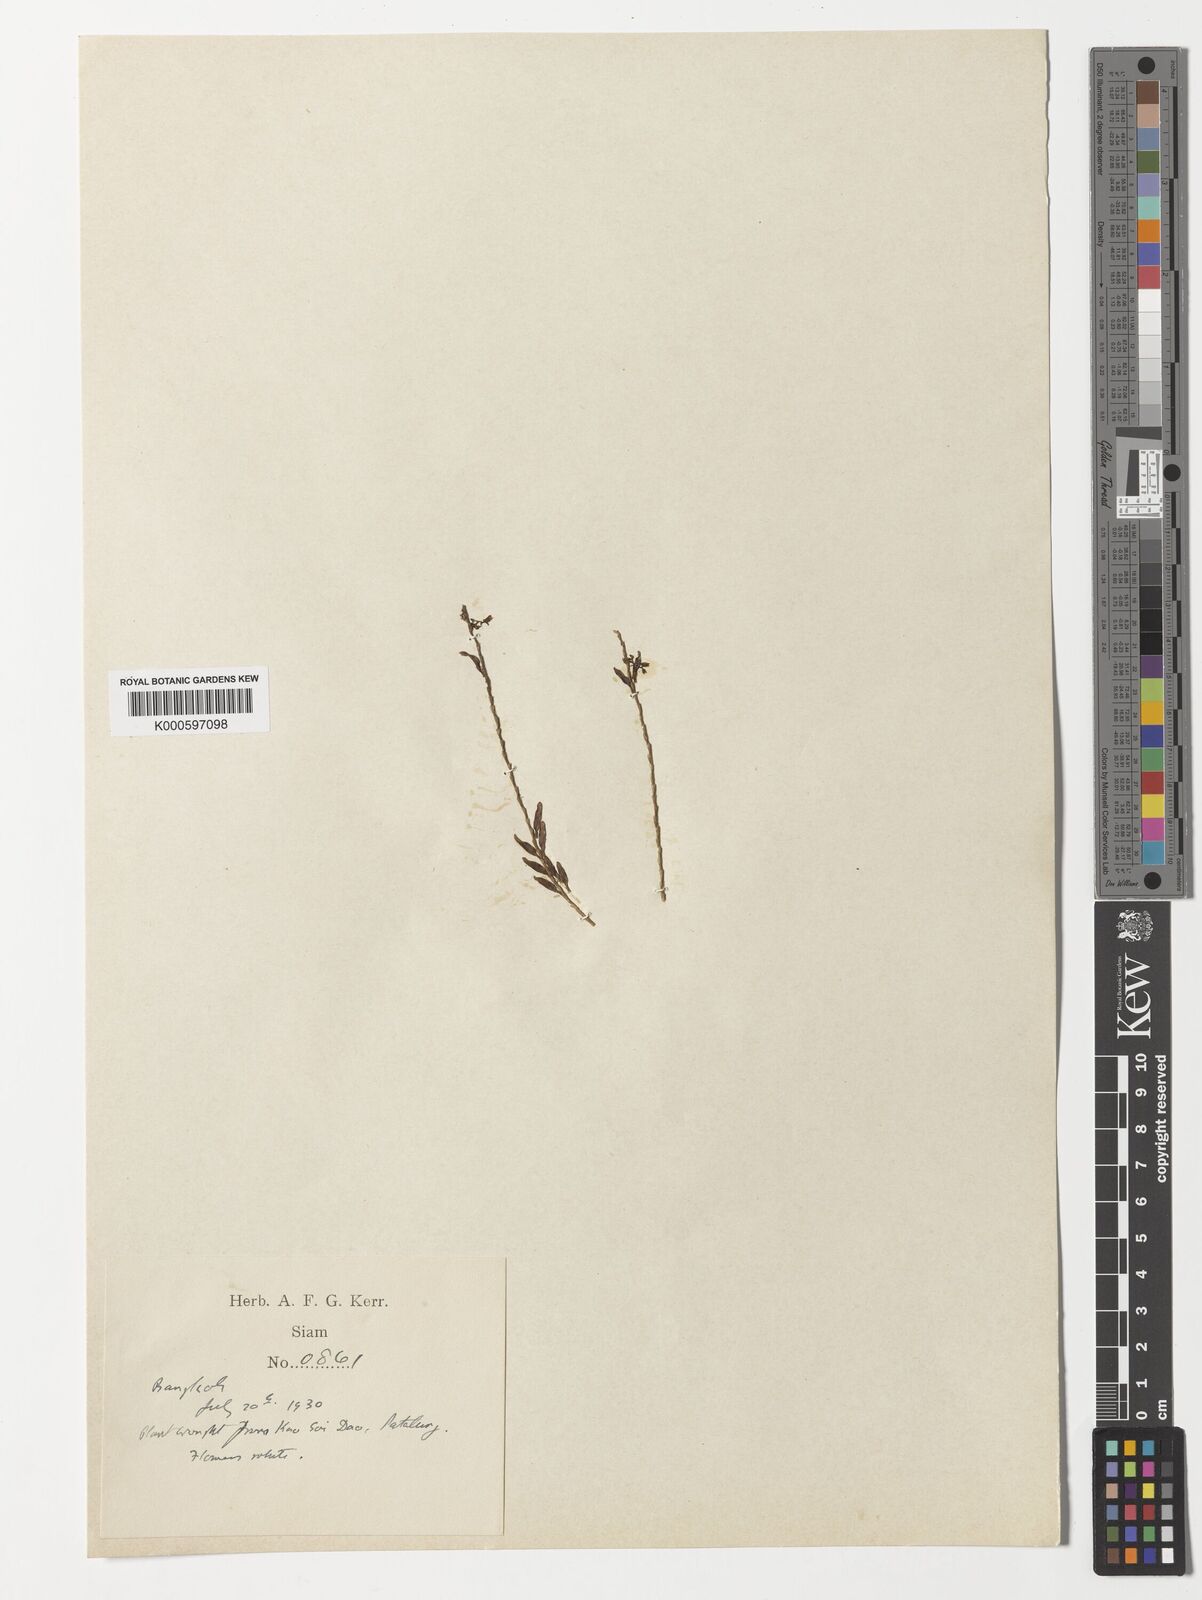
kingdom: Plantae
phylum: Tracheophyta
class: Liliopsida
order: Asparagales
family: Orchidaceae
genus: Podochilus
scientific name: Podochilus lucescens
